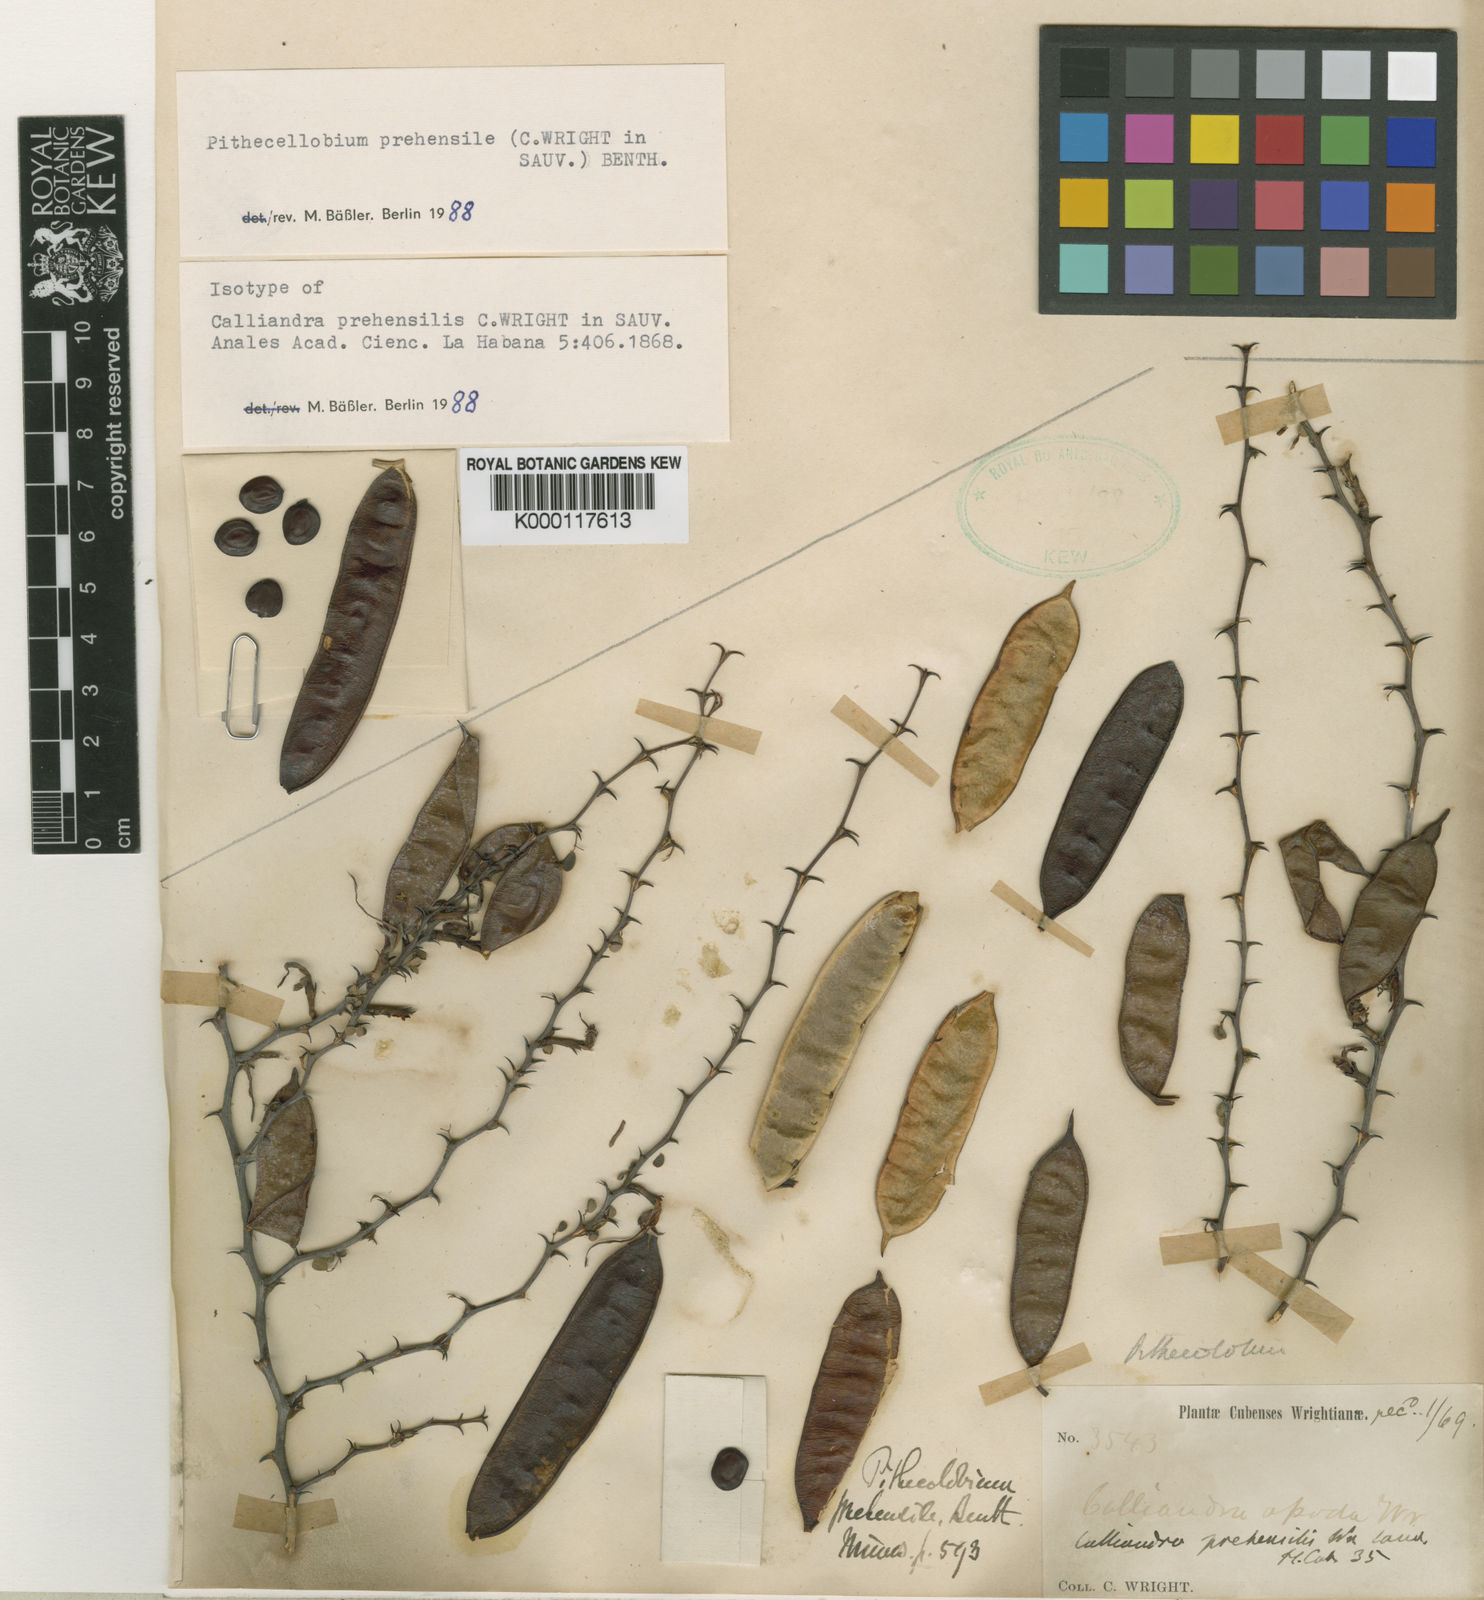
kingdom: Plantae
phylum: Tracheophyta
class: Magnoliopsida
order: Fabales
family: Fabaceae
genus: Sphinga
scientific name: Sphinga prehensilis
